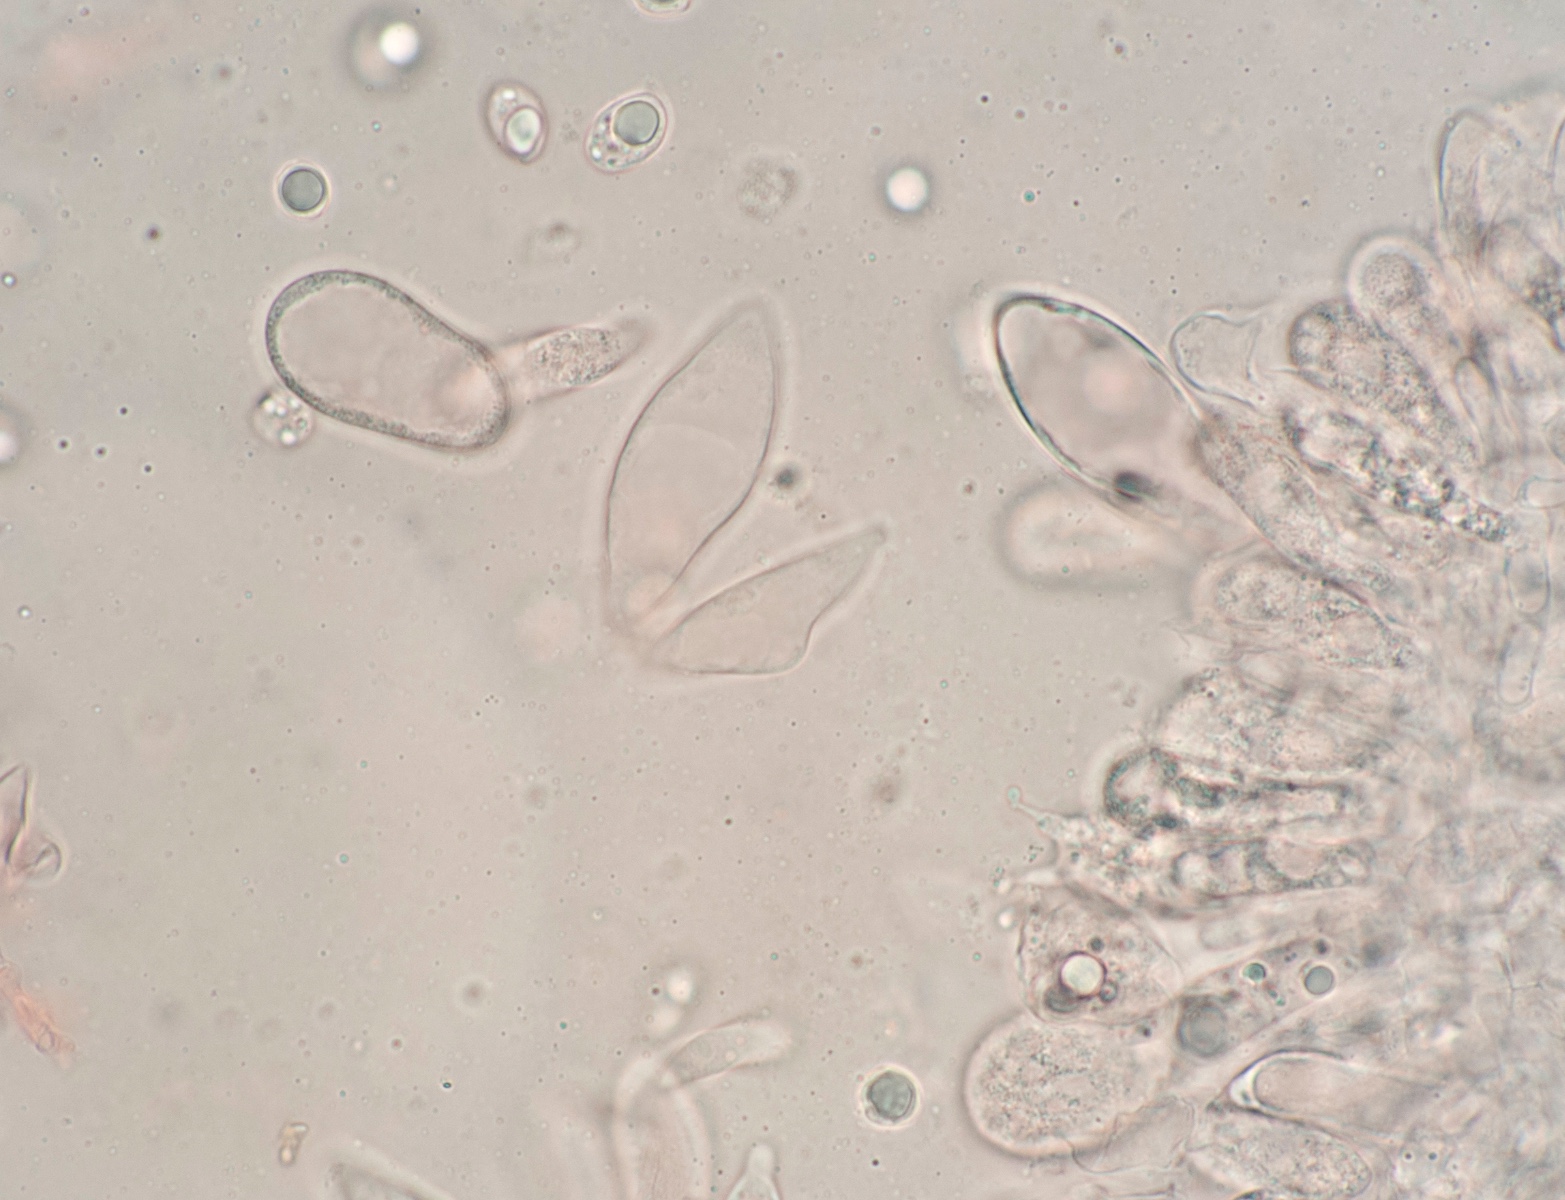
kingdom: Fungi
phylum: Basidiomycota
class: Agaricomycetes
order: Agaricales
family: Mycenaceae
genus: Mycena
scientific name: Mycena purpureofusca
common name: purpur-huesvamp
